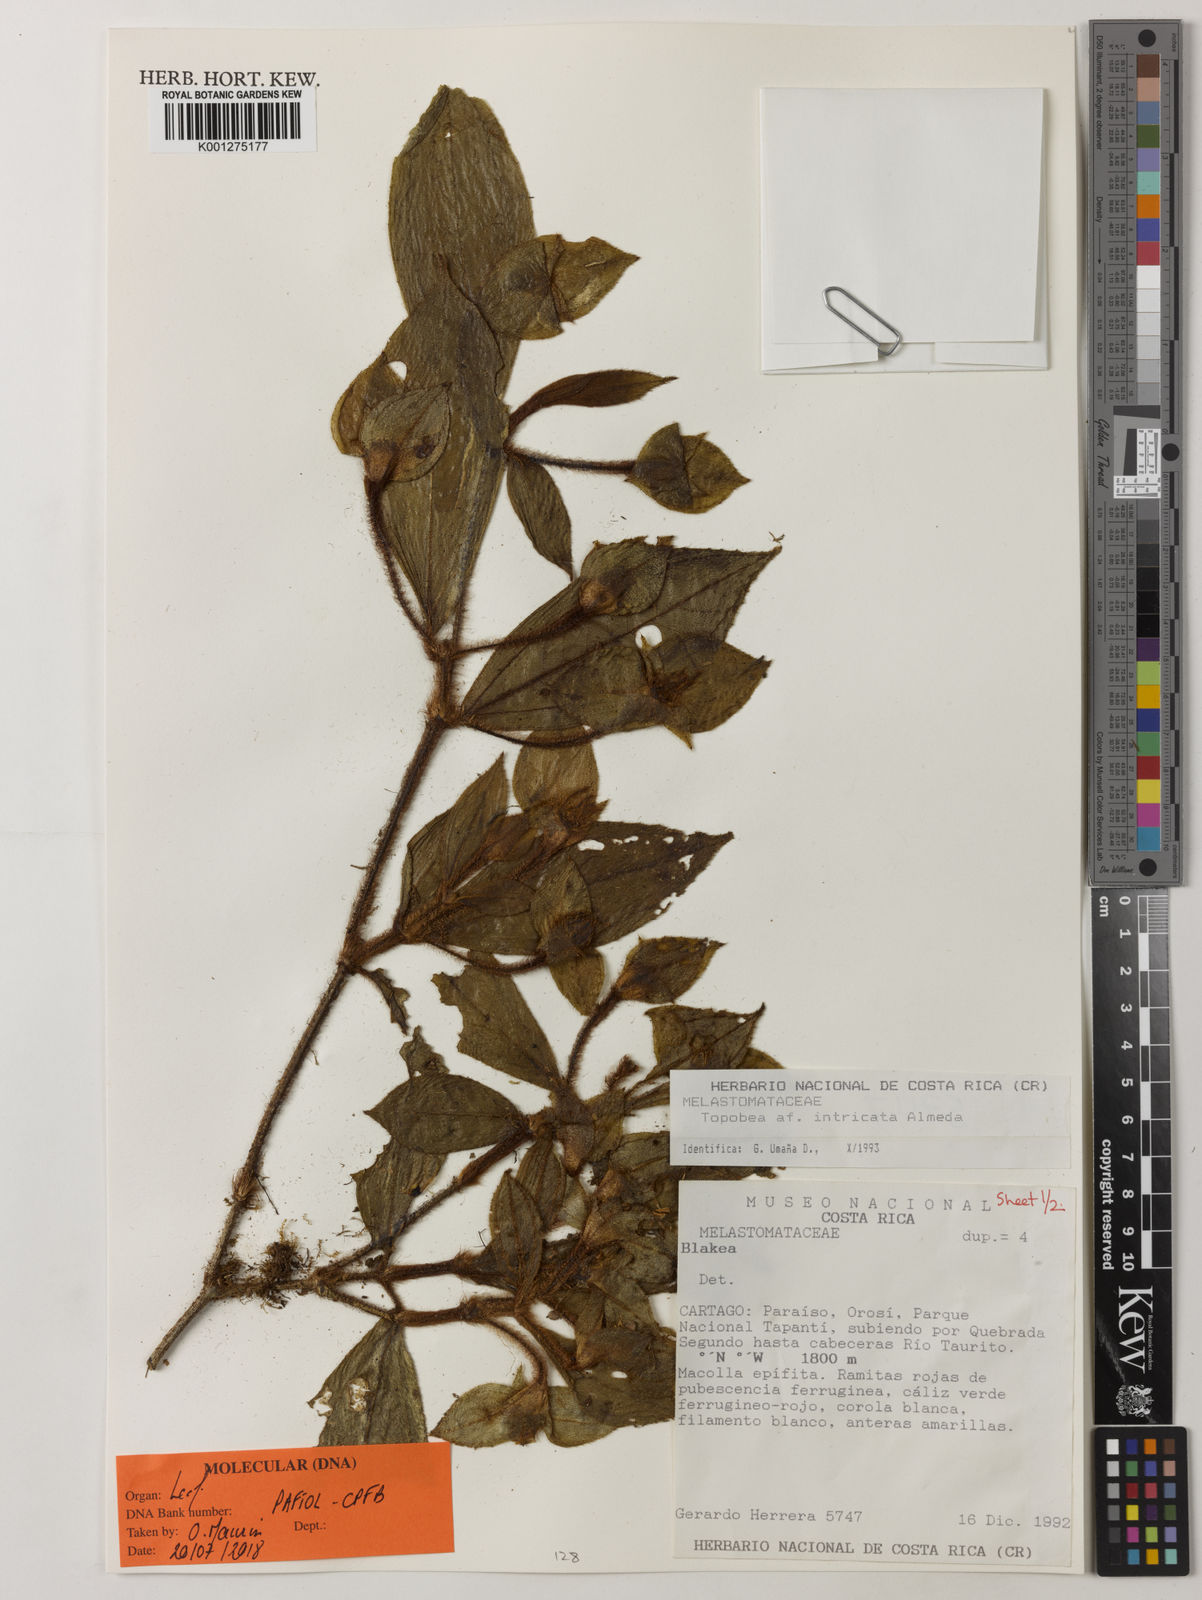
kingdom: Plantae
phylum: Tracheophyta
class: Magnoliopsida
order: Myrtales
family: Melastomataceae
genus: Blakea
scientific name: Blakea intricata
